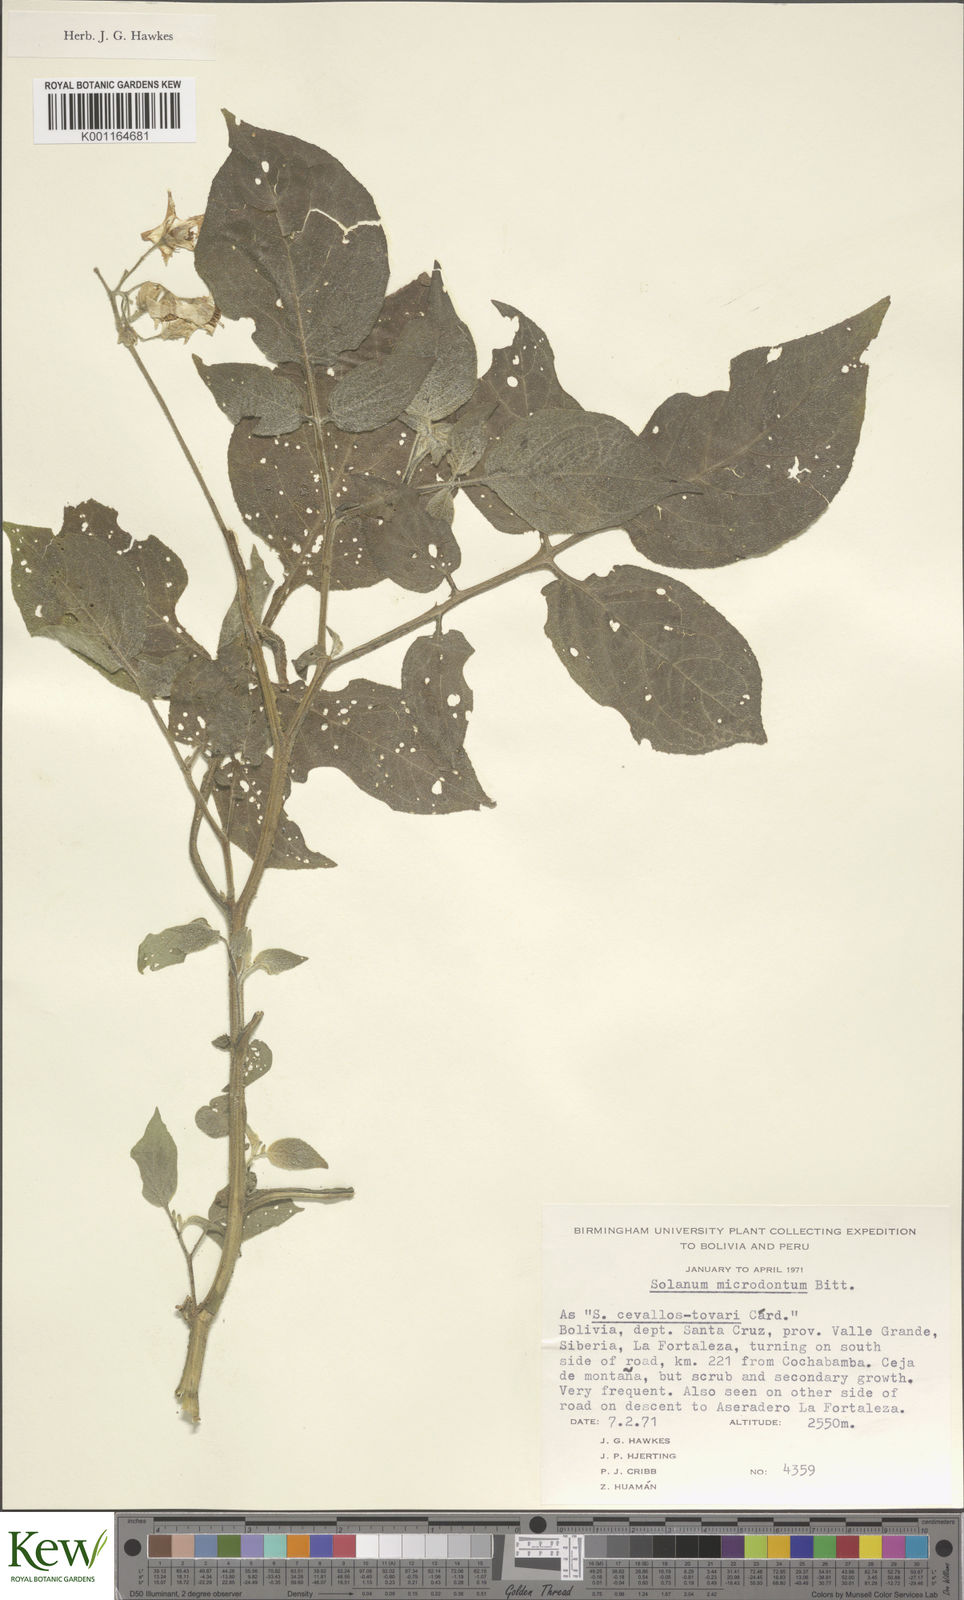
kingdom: Plantae
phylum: Tracheophyta
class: Magnoliopsida
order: Solanales
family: Solanaceae
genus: Solanum
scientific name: Solanum microdontum
